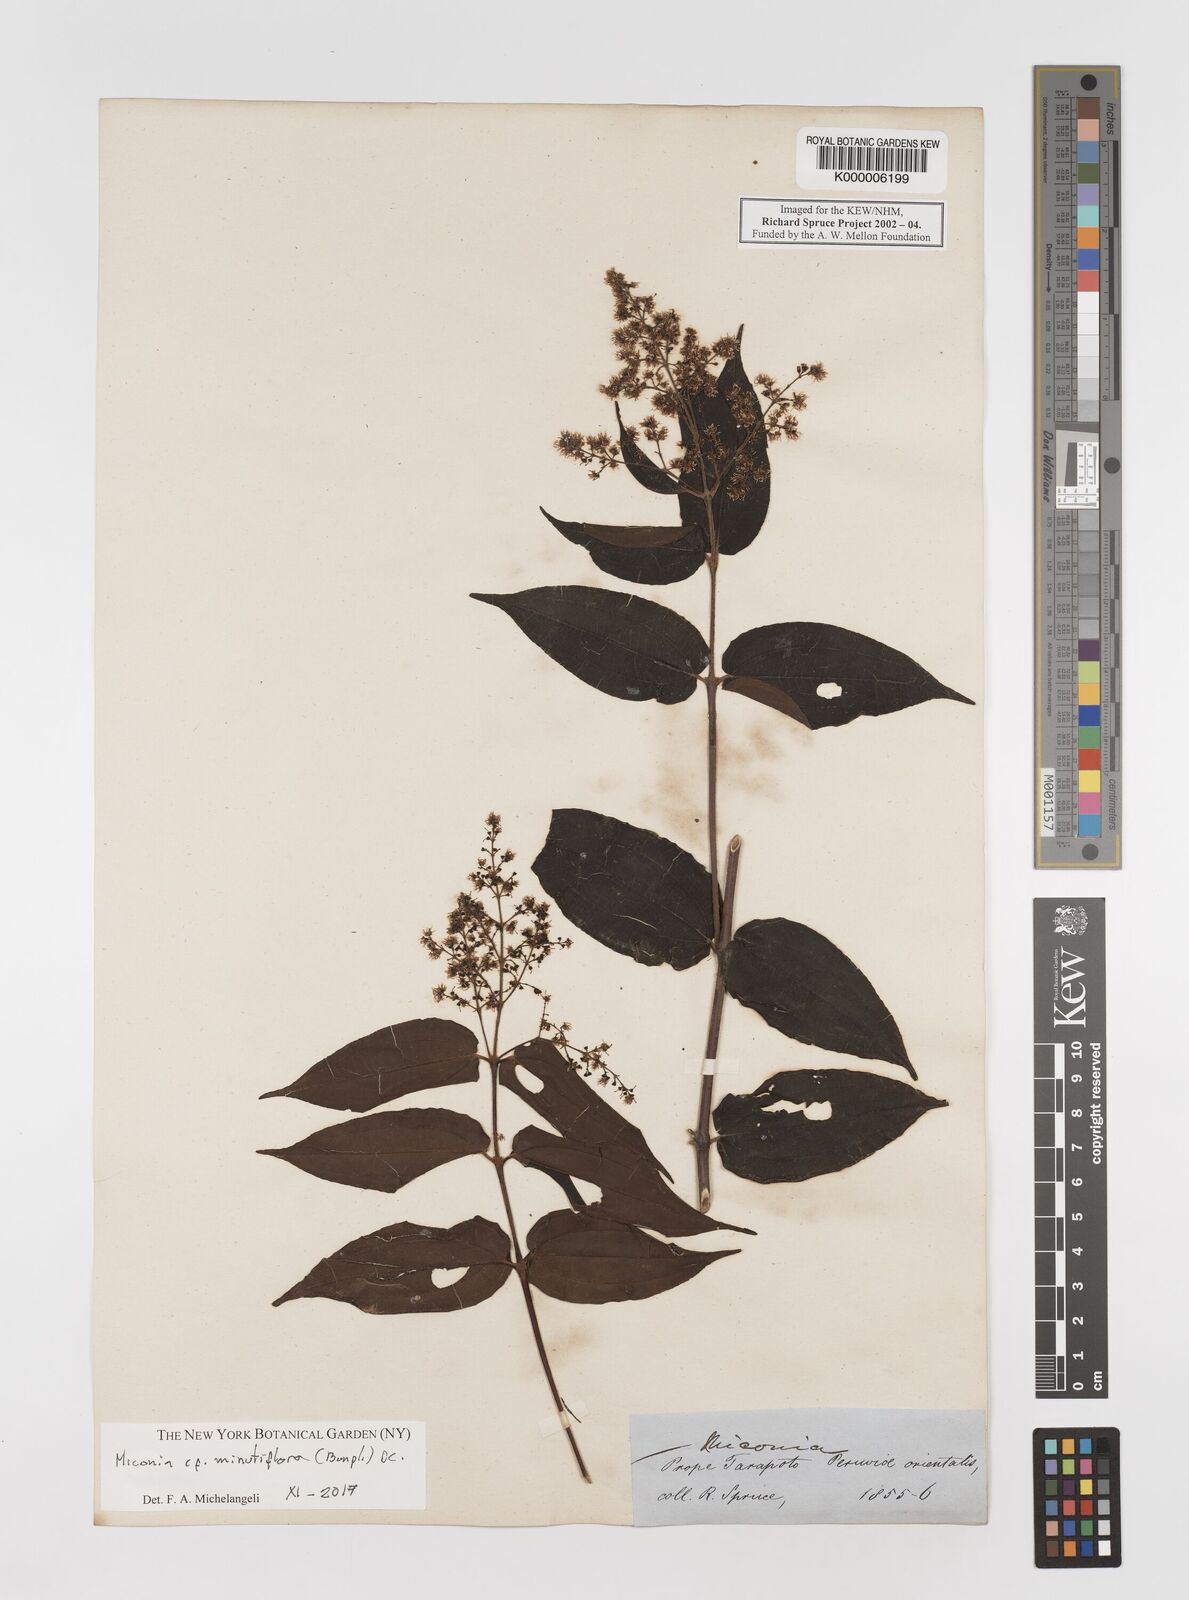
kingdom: Plantae
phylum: Tracheophyta
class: Magnoliopsida
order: Myrtales
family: Melastomataceae
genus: Miconia
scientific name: Miconia
